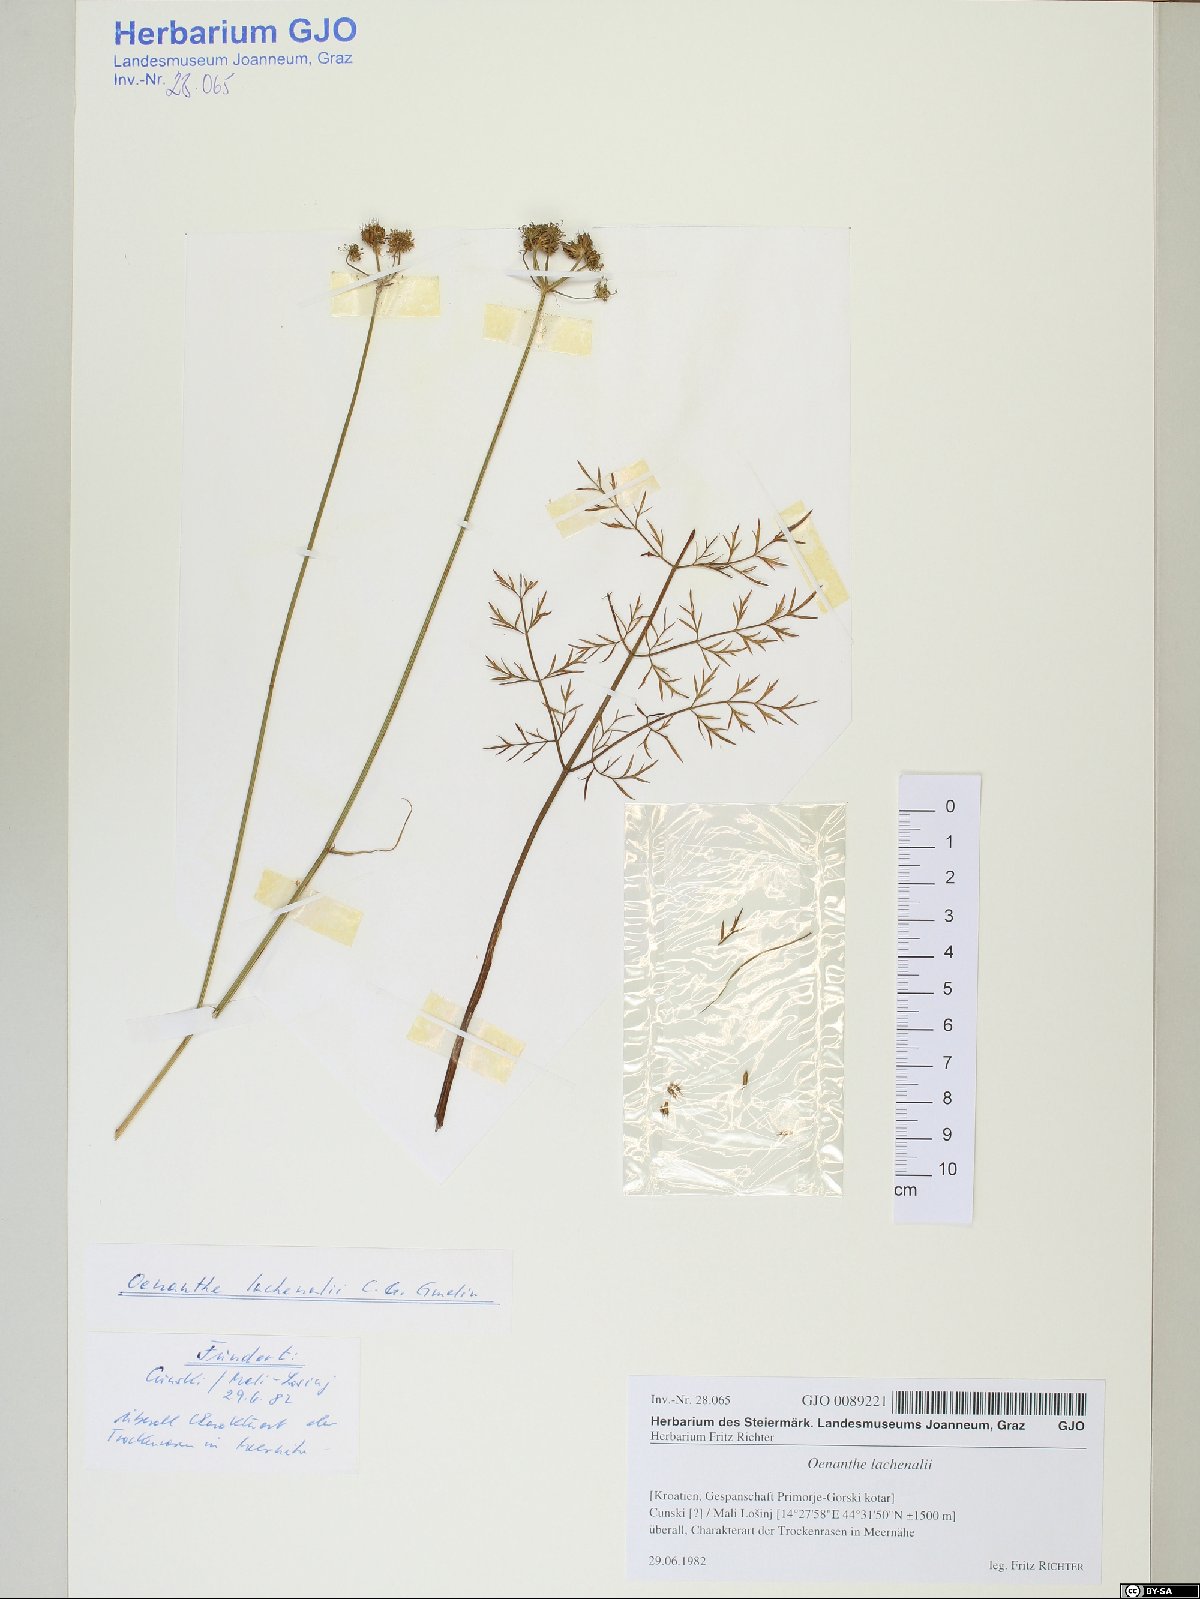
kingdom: Plantae
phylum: Tracheophyta
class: Magnoliopsida
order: Apiales
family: Apiaceae
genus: Oenanthe
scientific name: Oenanthe lachenalii
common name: Parsley water-dropwort
